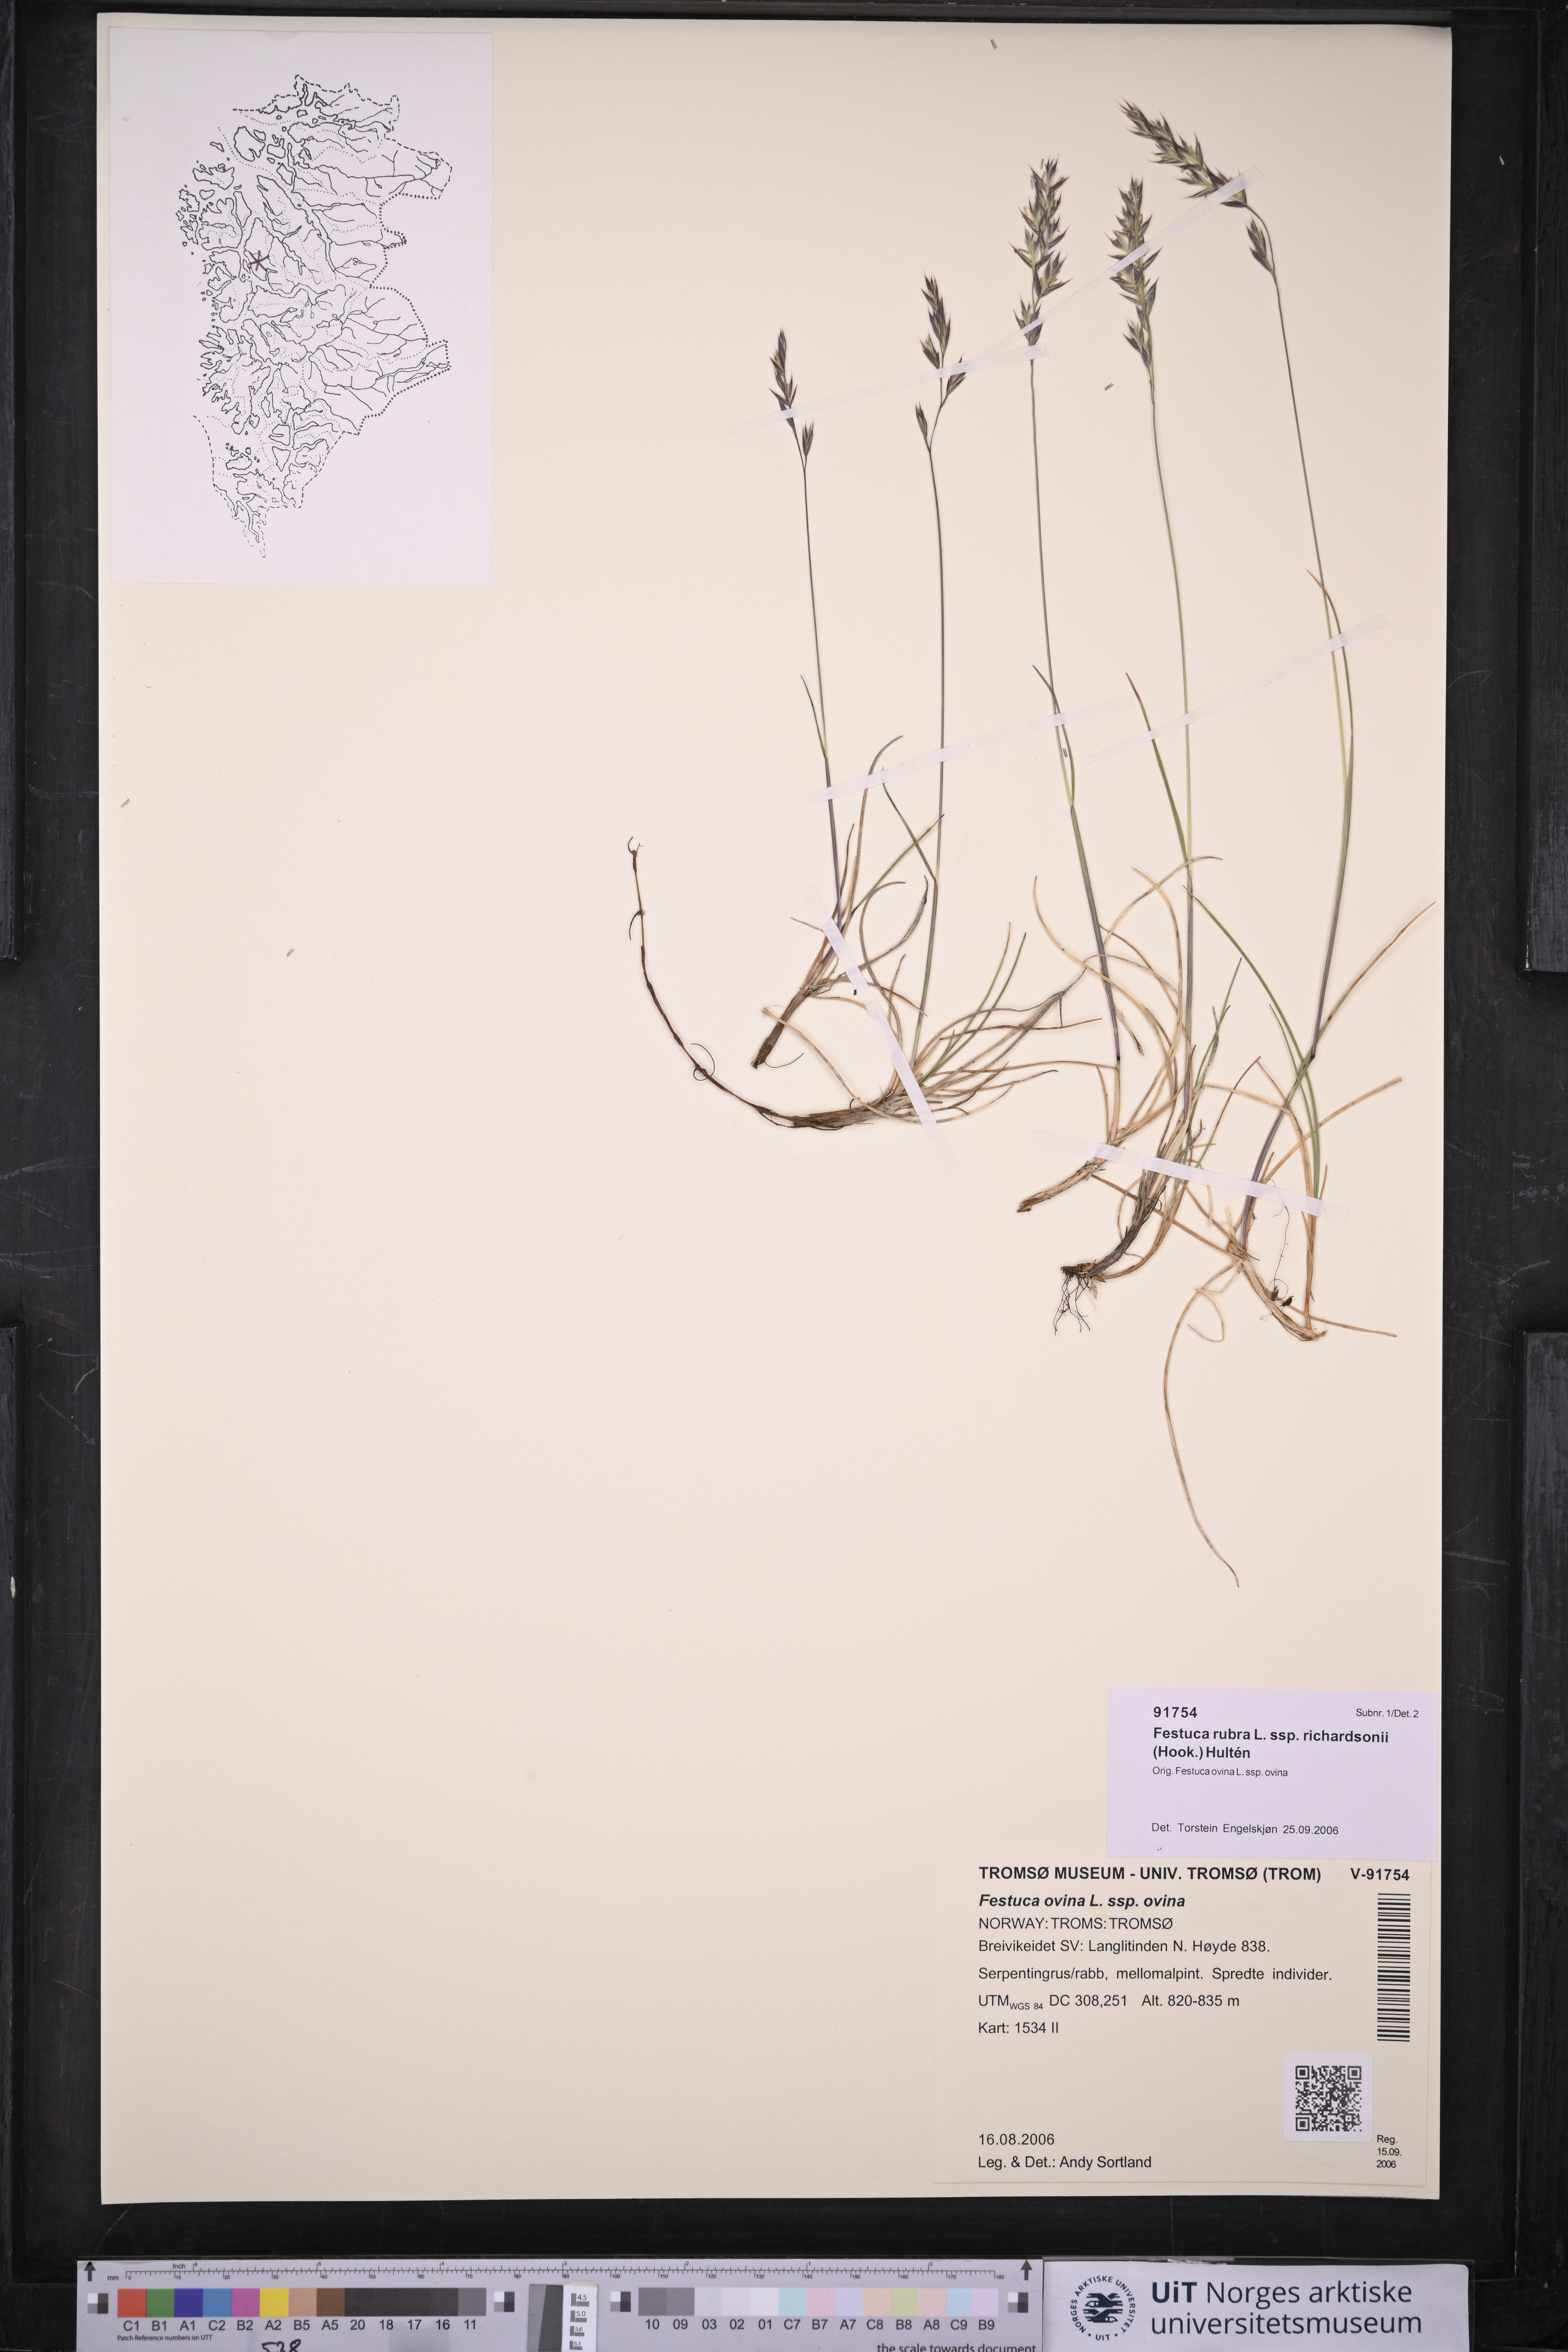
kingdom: Plantae
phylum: Tracheophyta
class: Liliopsida
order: Poales
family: Poaceae
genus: Festuca
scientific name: Festuca richardsonii
